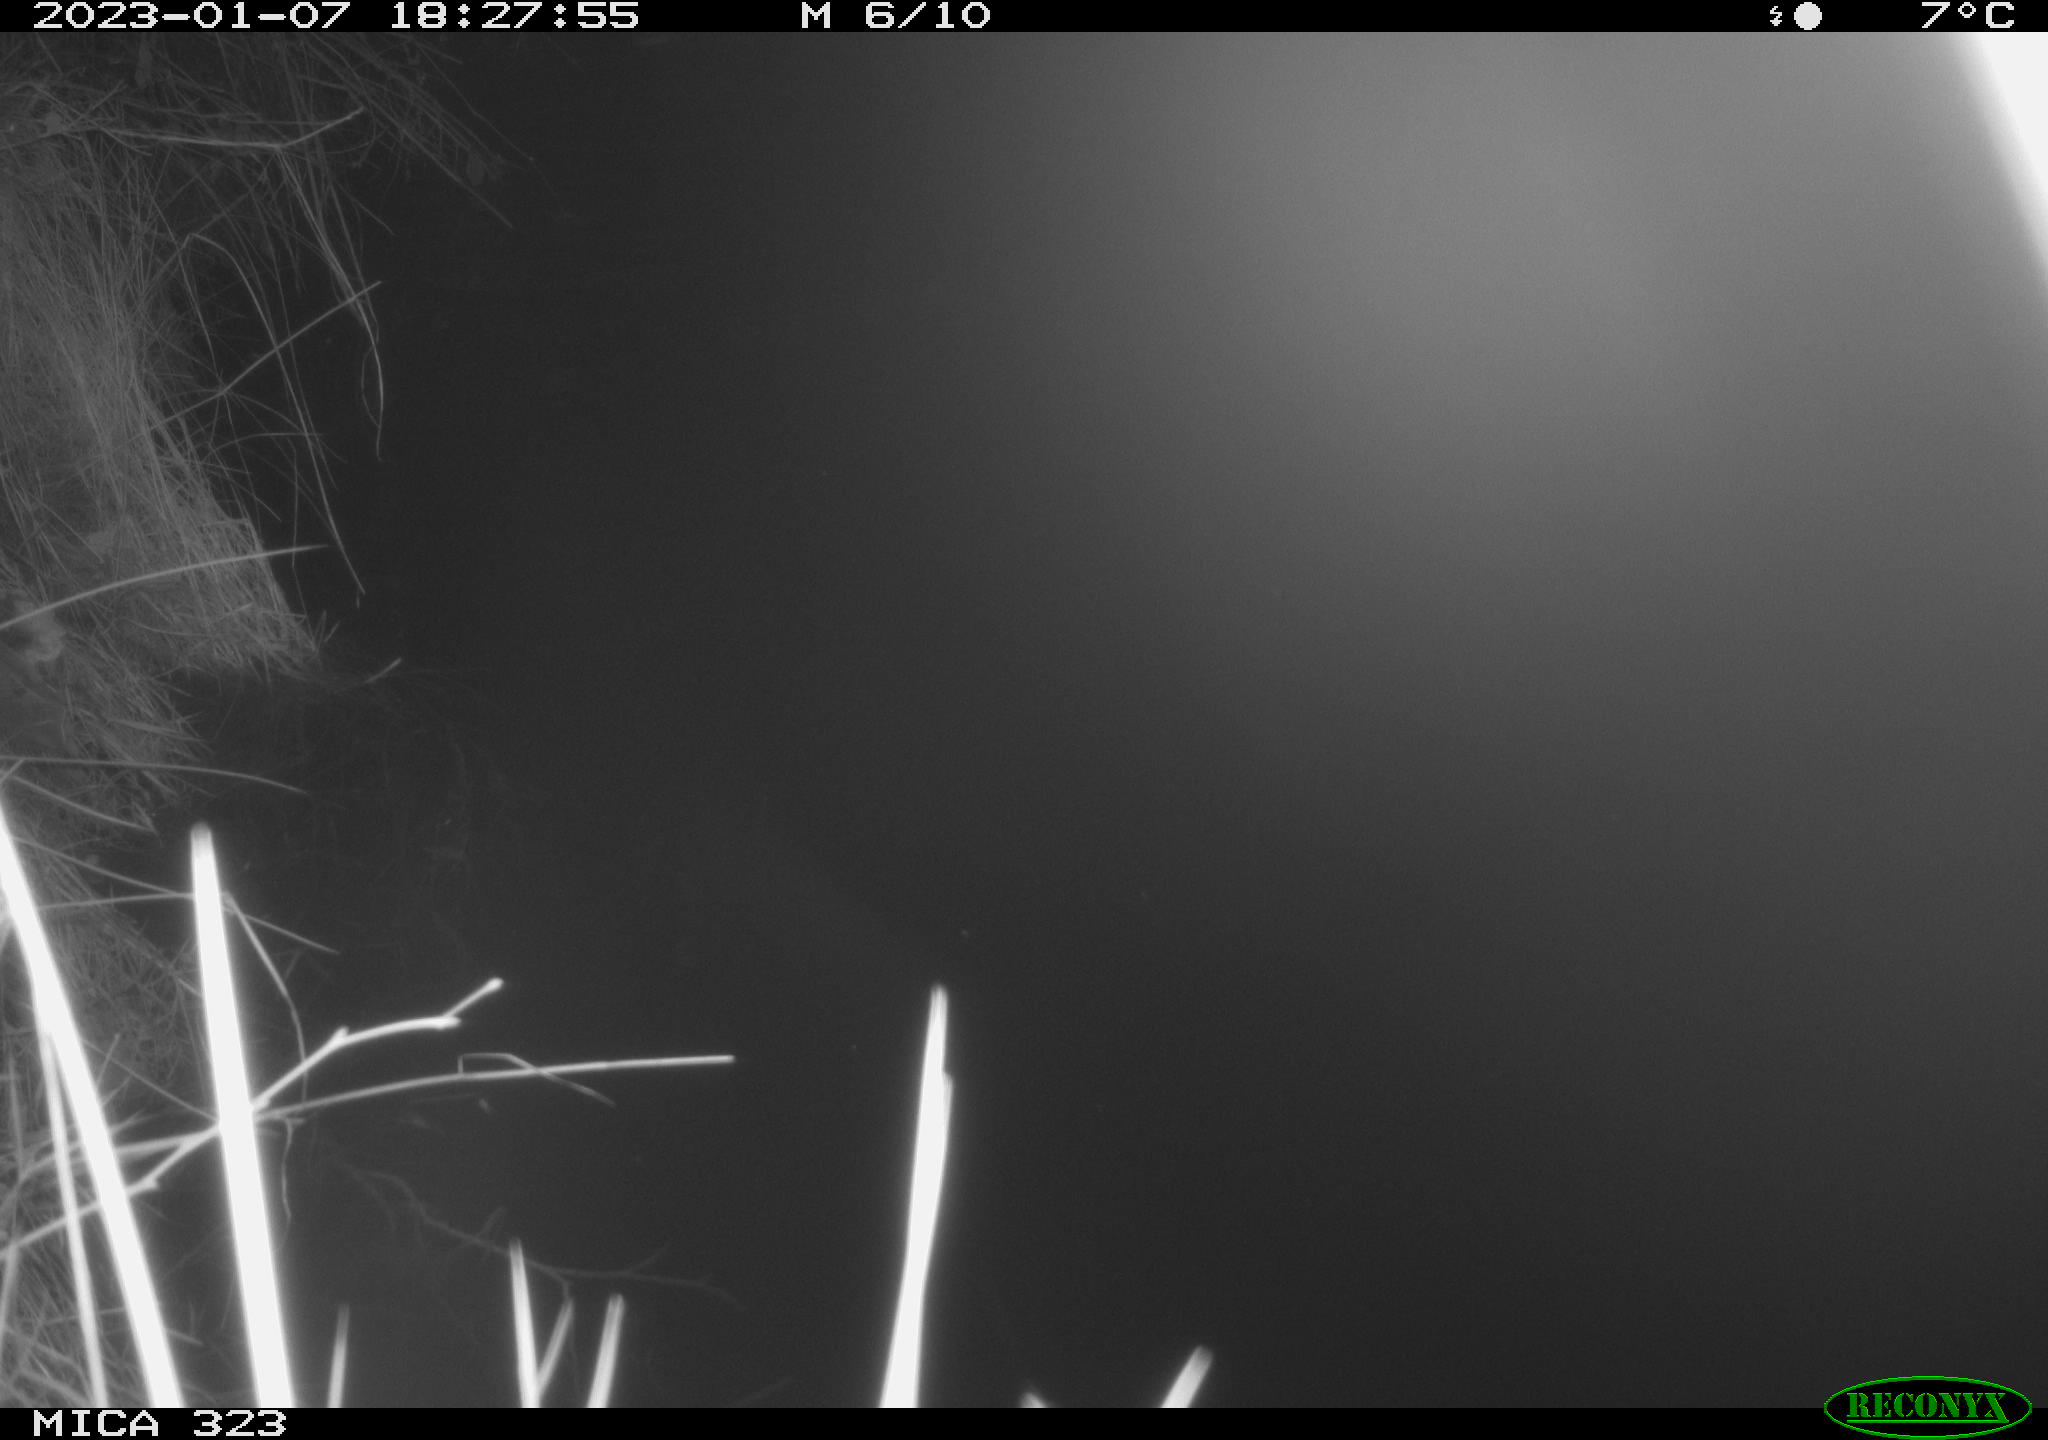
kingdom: Animalia
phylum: Chordata
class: Mammalia
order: Rodentia
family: Cricetidae
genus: Ondatra
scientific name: Ondatra zibethicus
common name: Muskrat
